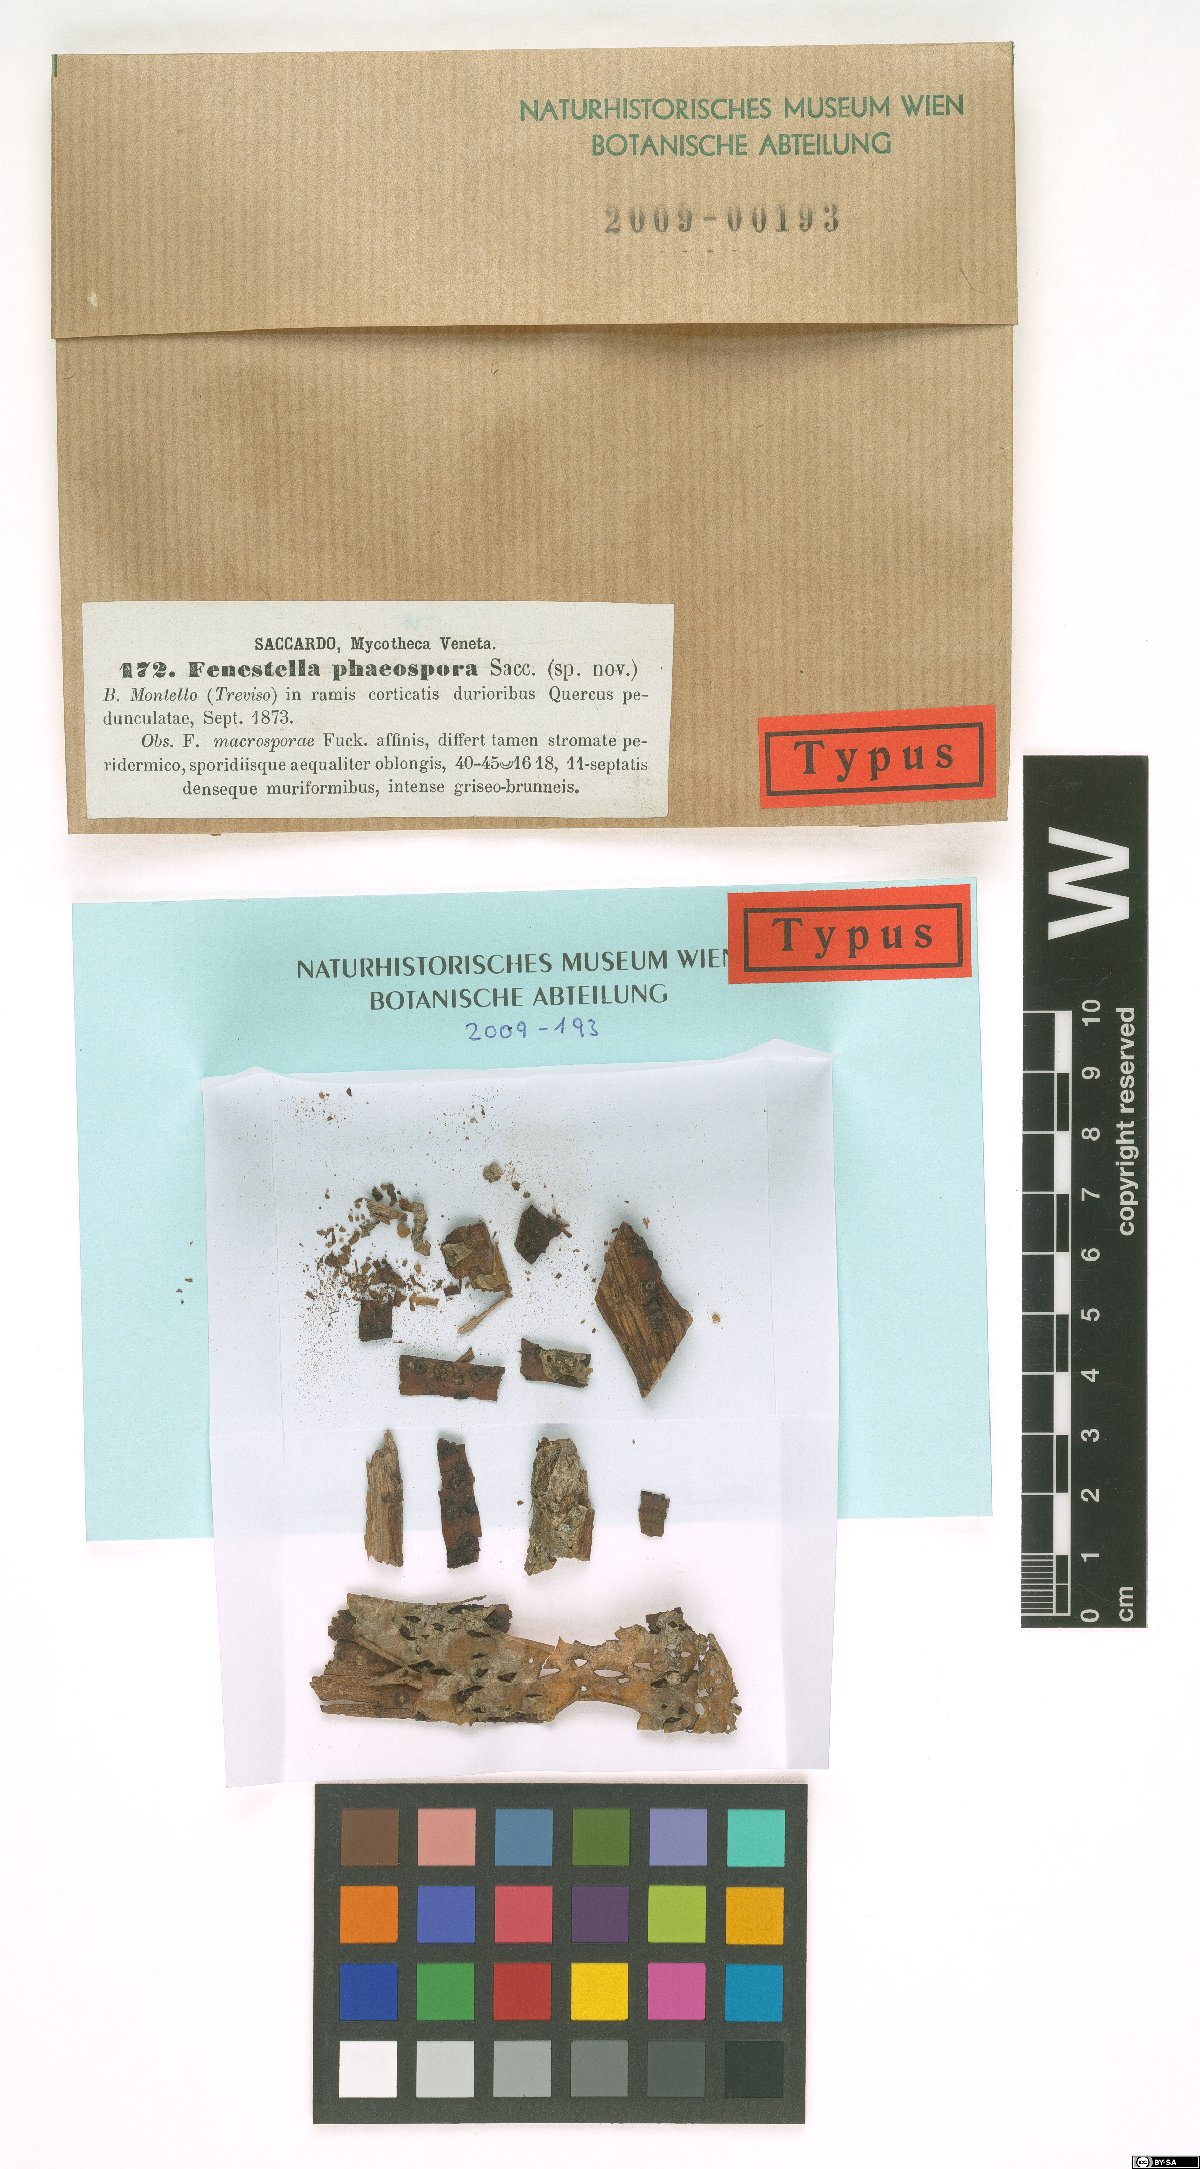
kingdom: Fungi
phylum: Ascomycota
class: Dothideomycetes
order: Pleosporales
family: Fenestellaceae
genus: Fenestella
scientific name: Fenestella phaeospora
